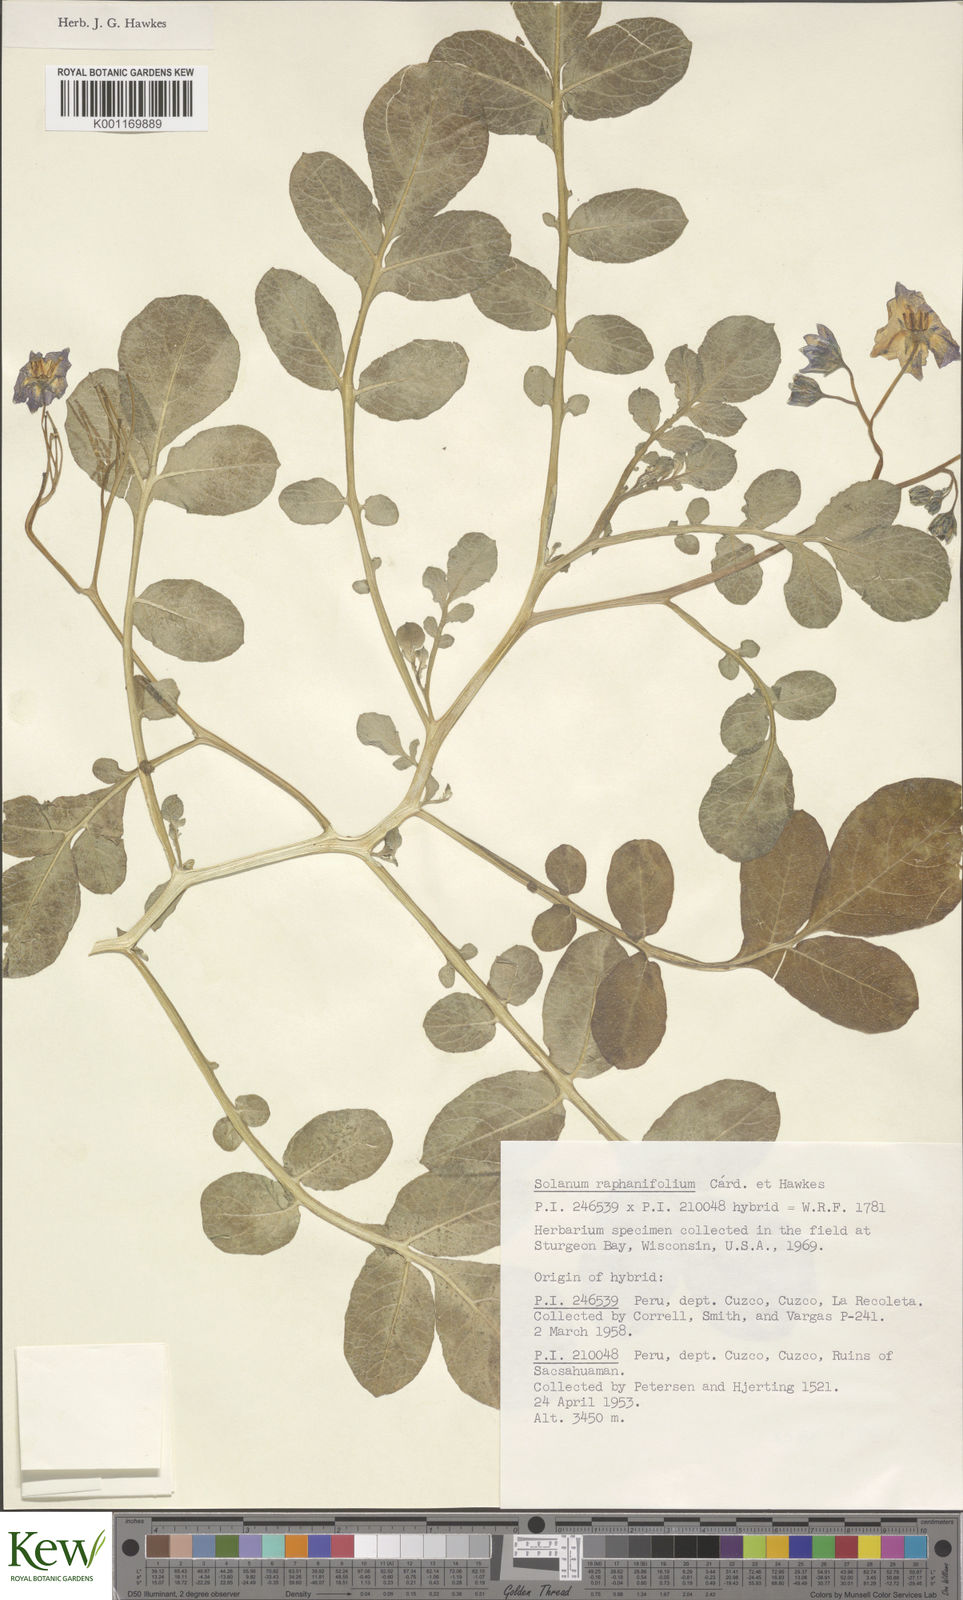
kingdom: Plantae
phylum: Tracheophyta
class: Magnoliopsida
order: Solanales
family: Solanaceae
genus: Solanum
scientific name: Solanum
